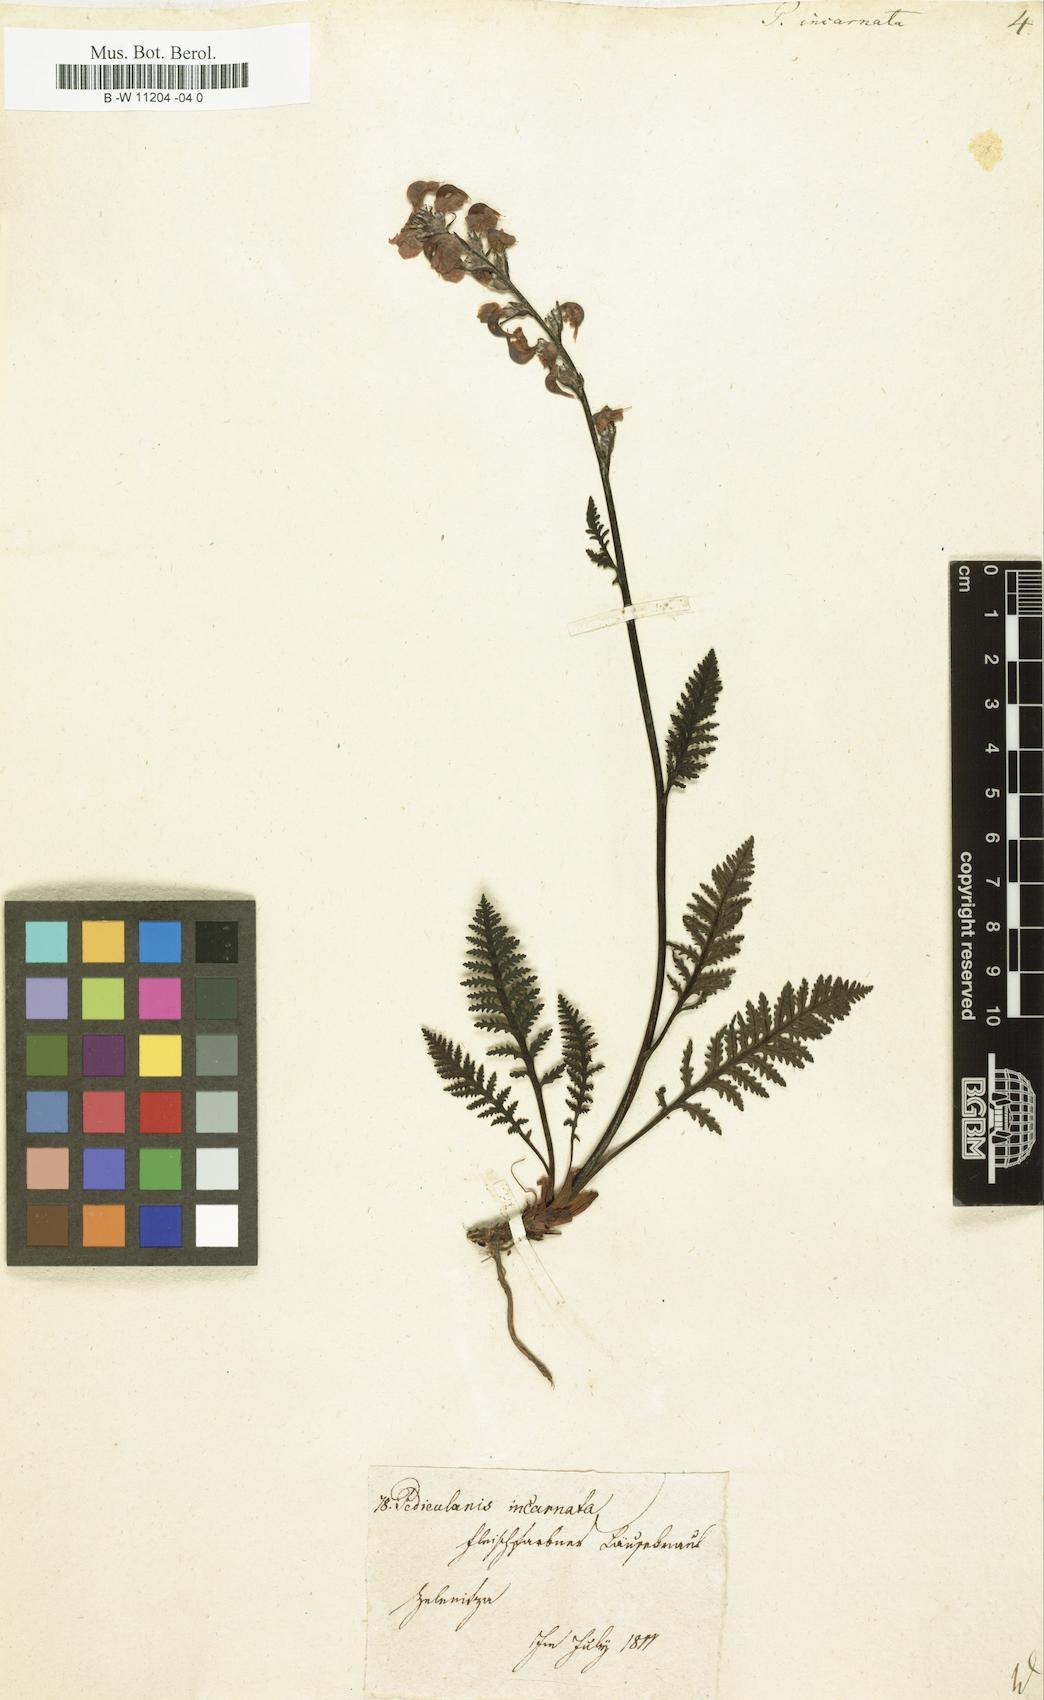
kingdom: Plantae
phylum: Tracheophyta
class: Magnoliopsida
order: Lamiales
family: Orobanchaceae
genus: Pedicularis
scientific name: Pedicularis incarnata
